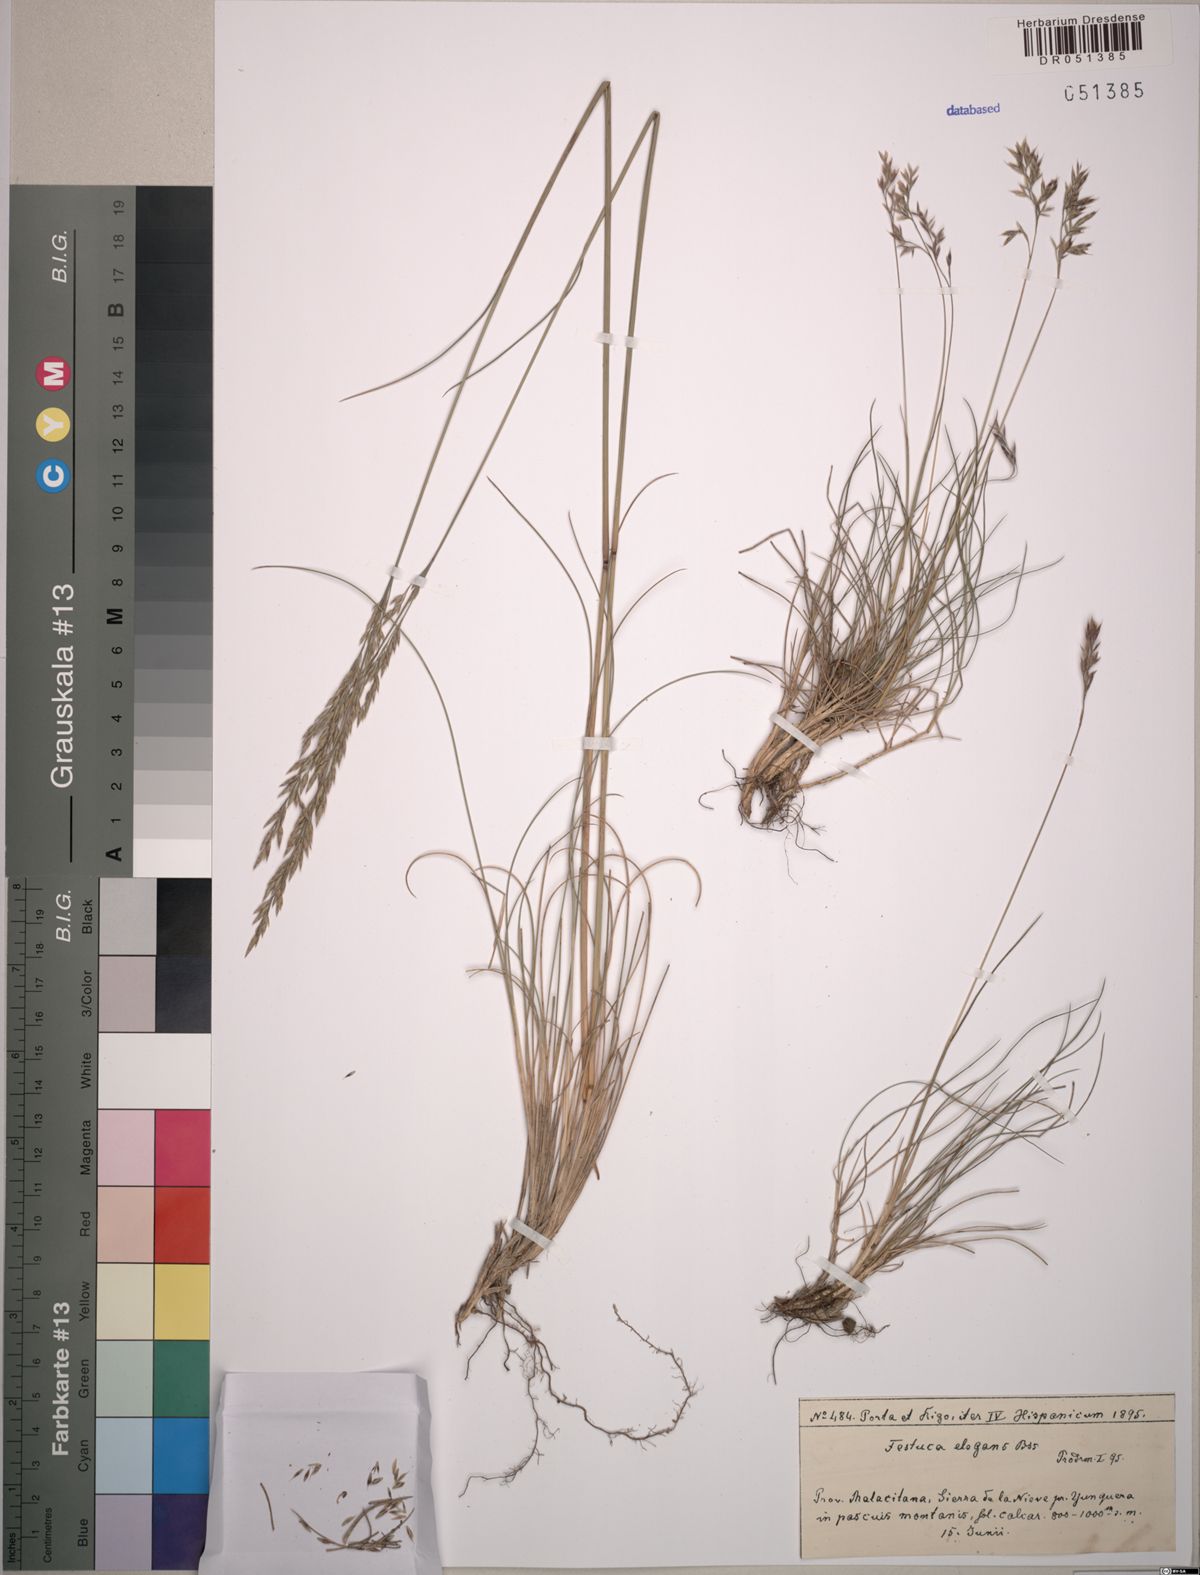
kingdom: Plantae
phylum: Tracheophyta
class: Liliopsida
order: Poales
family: Poaceae
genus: Festuca
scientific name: Festuca elegans
